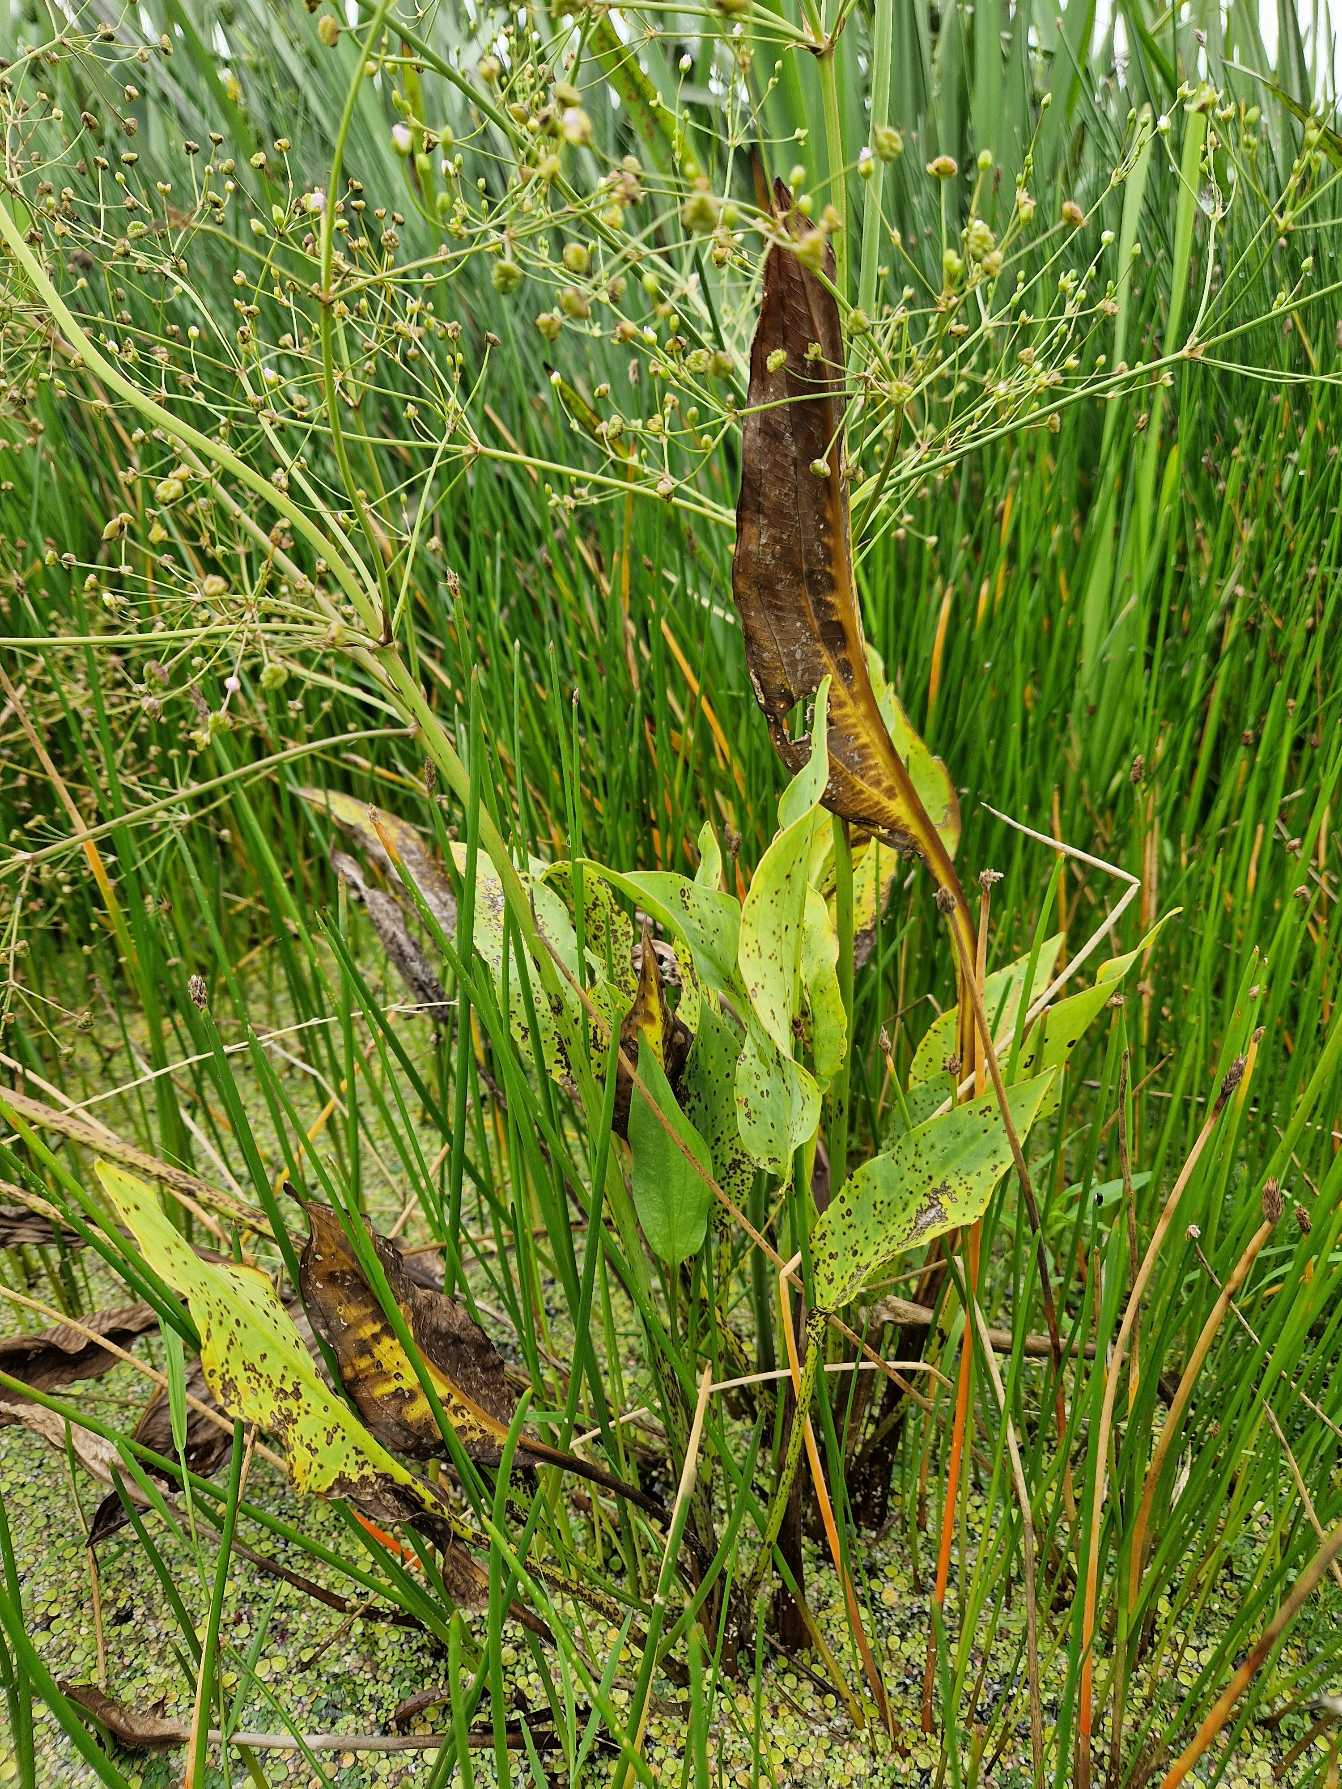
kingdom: Plantae
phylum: Tracheophyta
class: Liliopsida
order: Alismatales
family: Alismataceae
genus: Alisma
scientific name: Alisma plantago-aquatica
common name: Vejbred-skeblad
